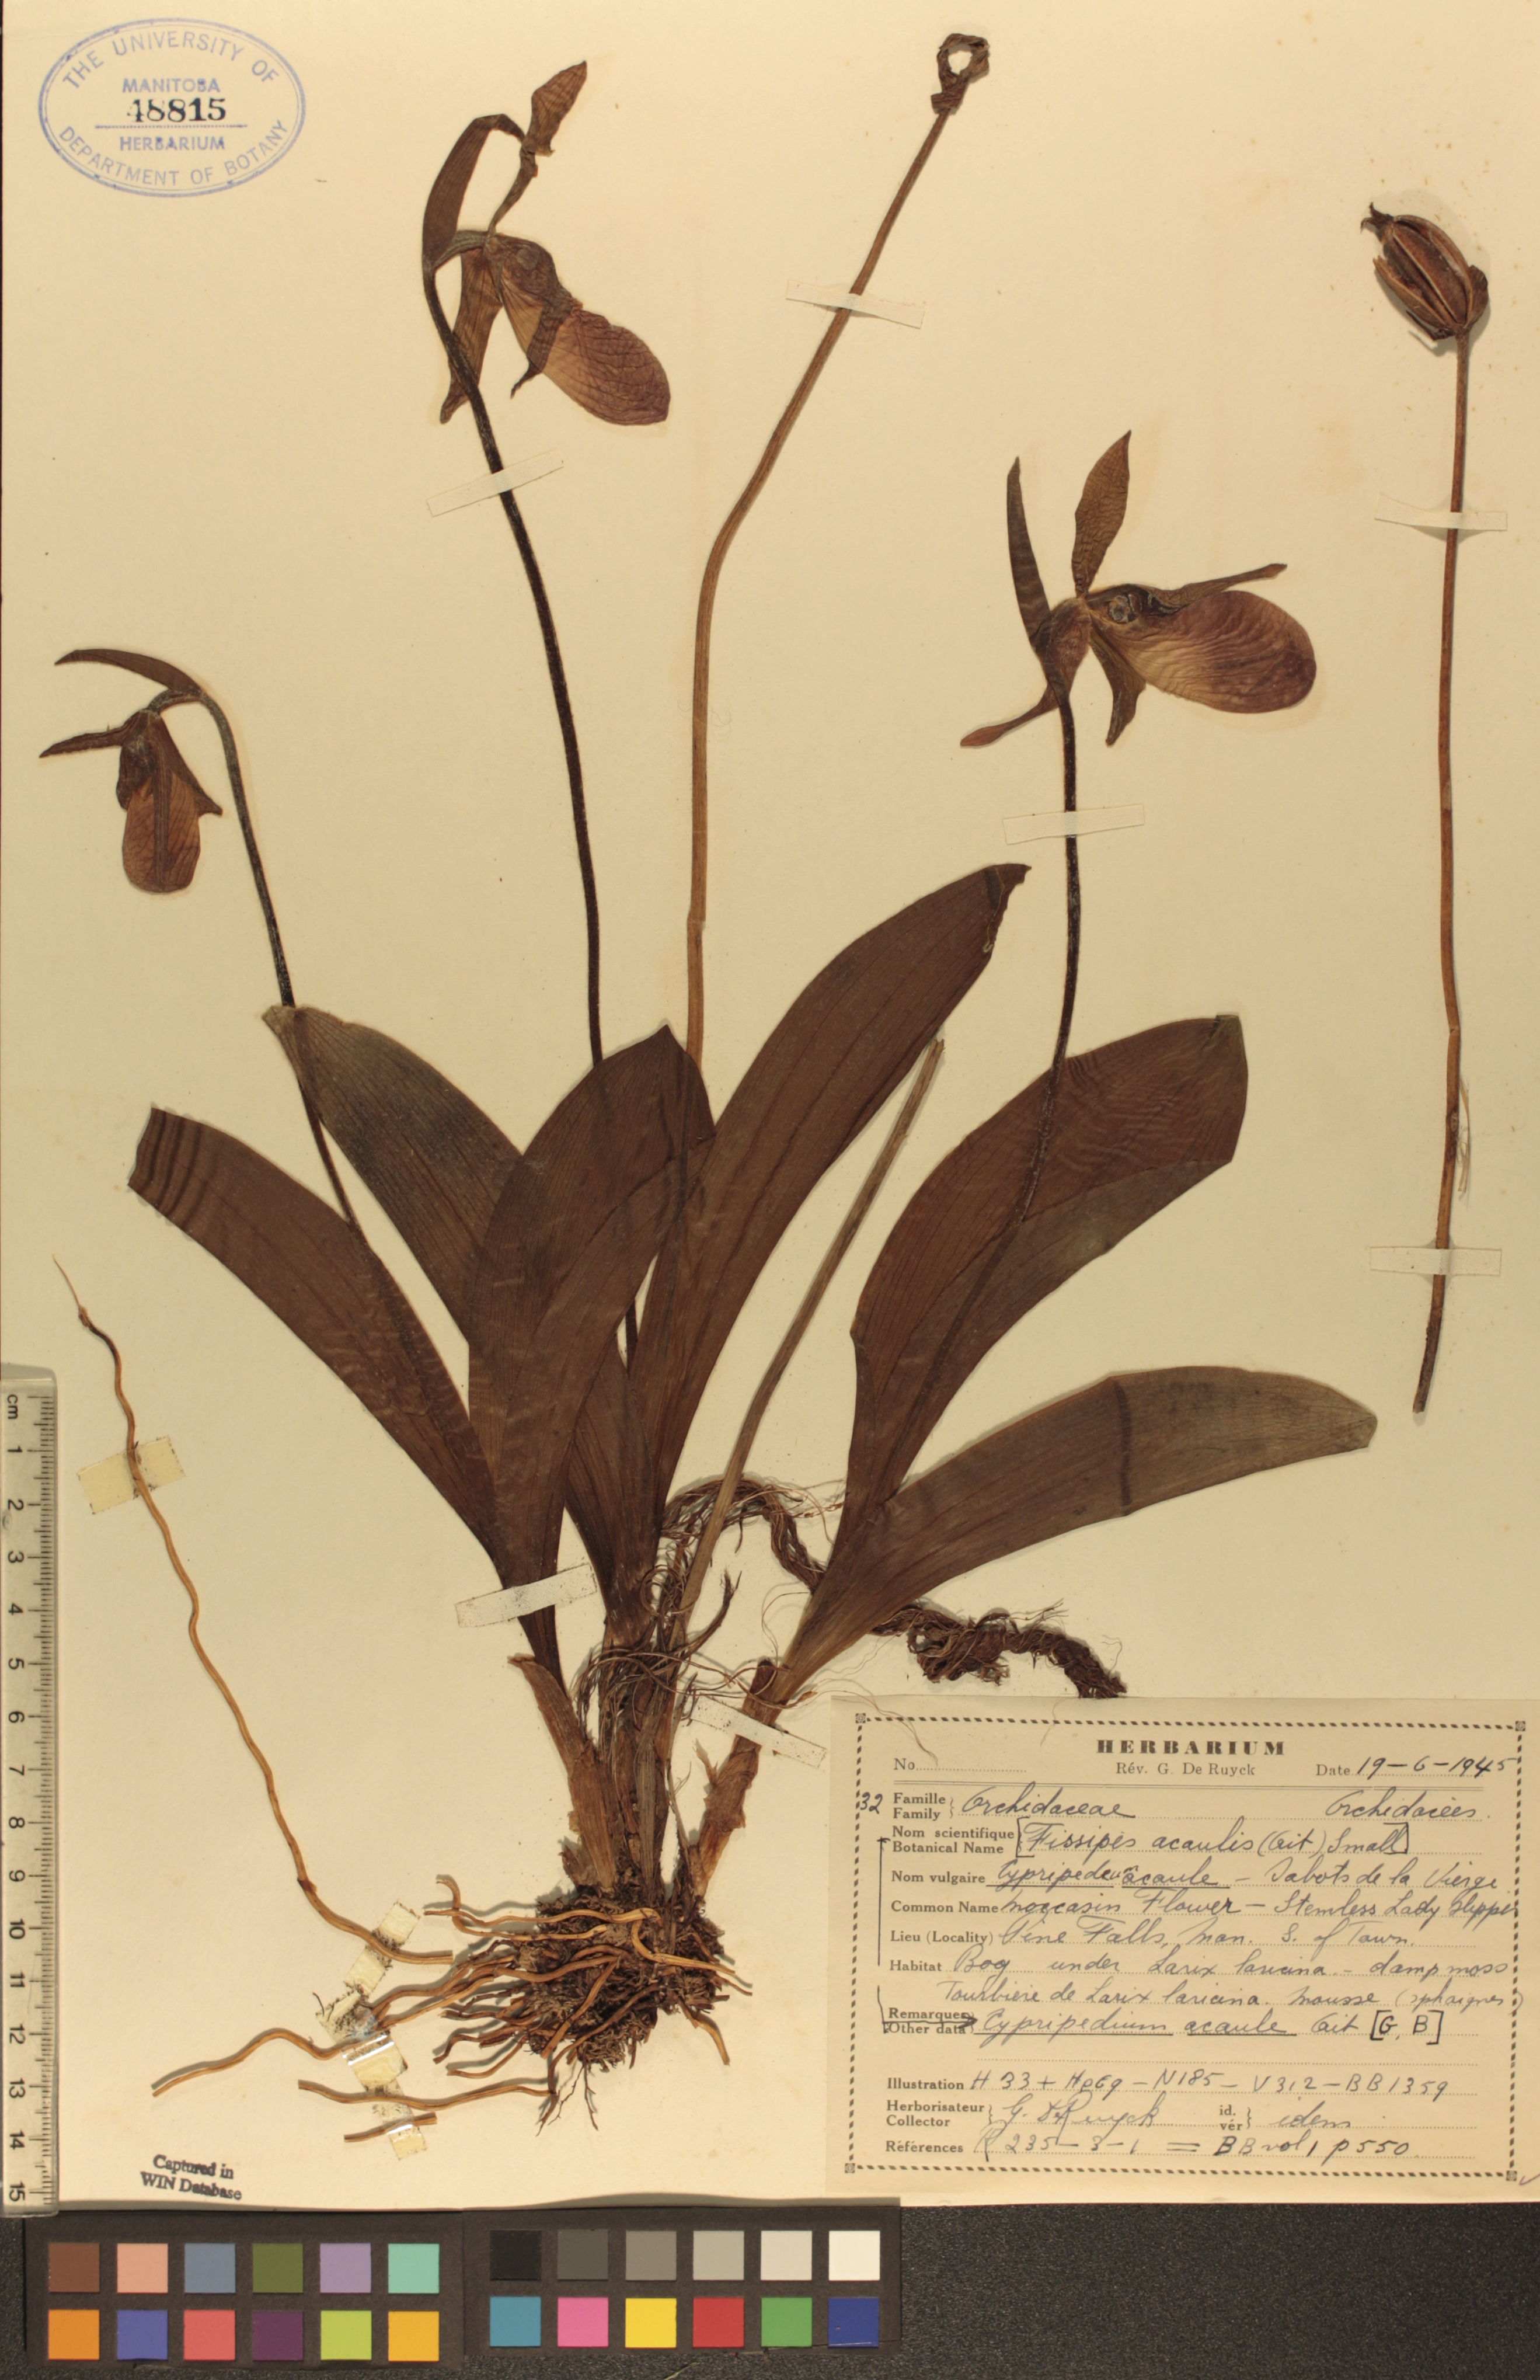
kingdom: Plantae
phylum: Tracheophyta
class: Liliopsida
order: Asparagales
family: Orchidaceae
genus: Cypripedium
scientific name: Cypripedium acaule
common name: Pink lady's-slipper
